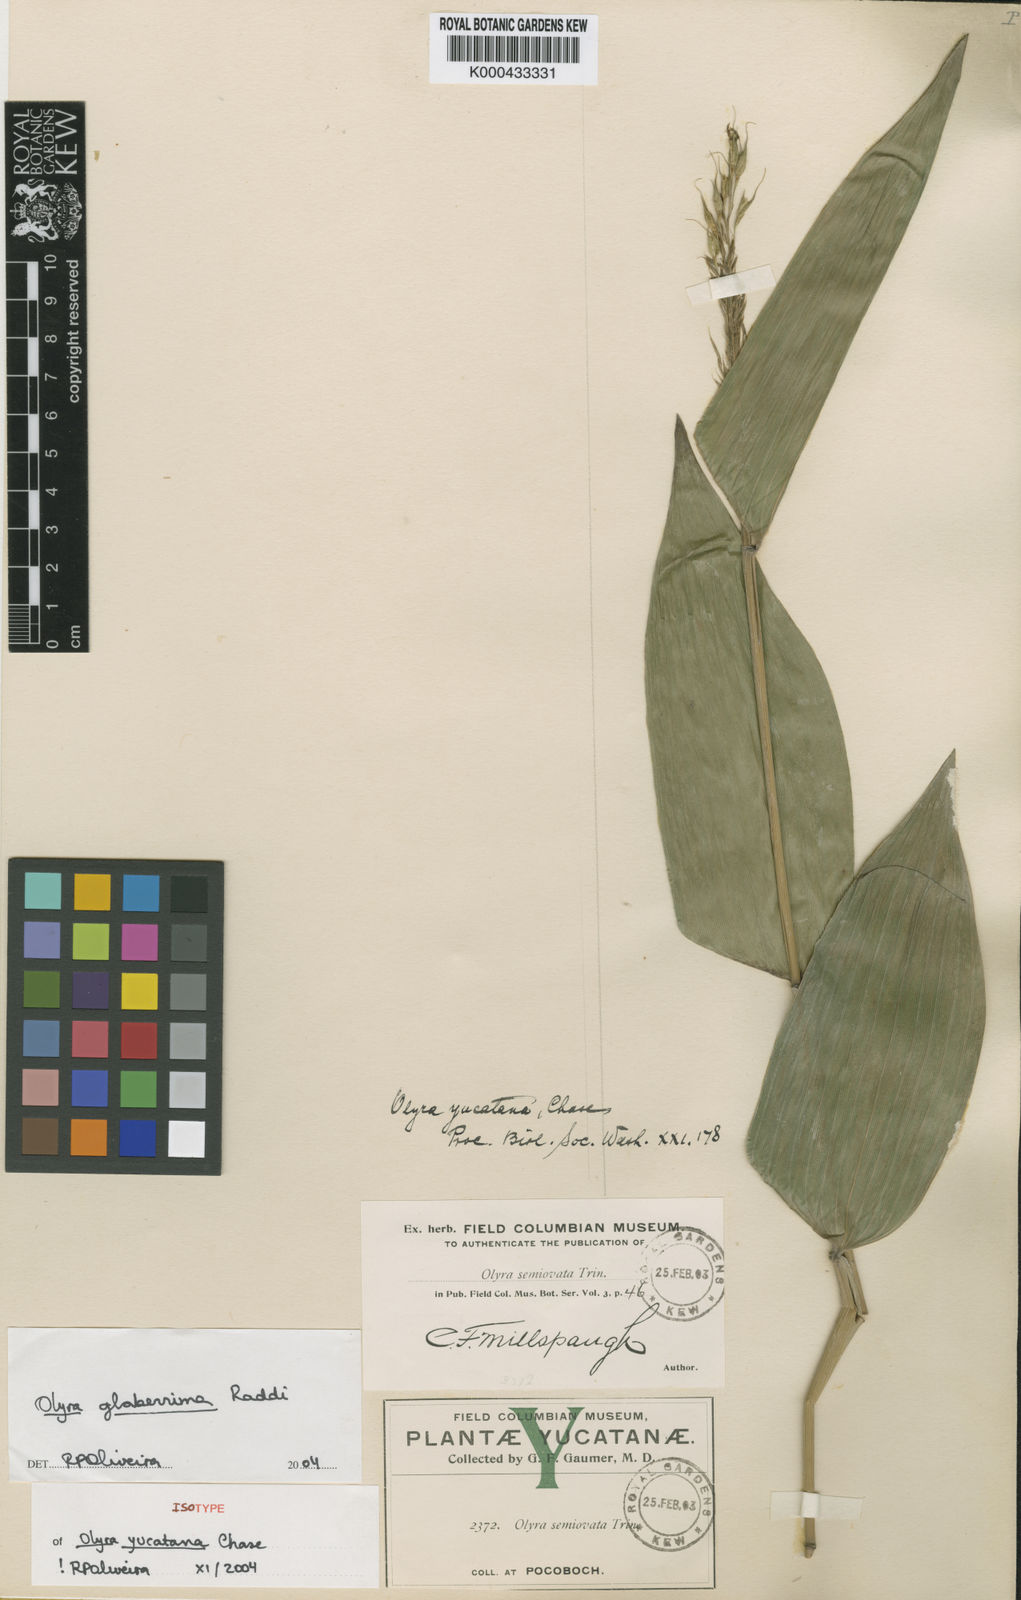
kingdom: Plantae
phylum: Tracheophyta
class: Liliopsida
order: Poales
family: Poaceae
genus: Olyra
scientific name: Olyra glaberrima
